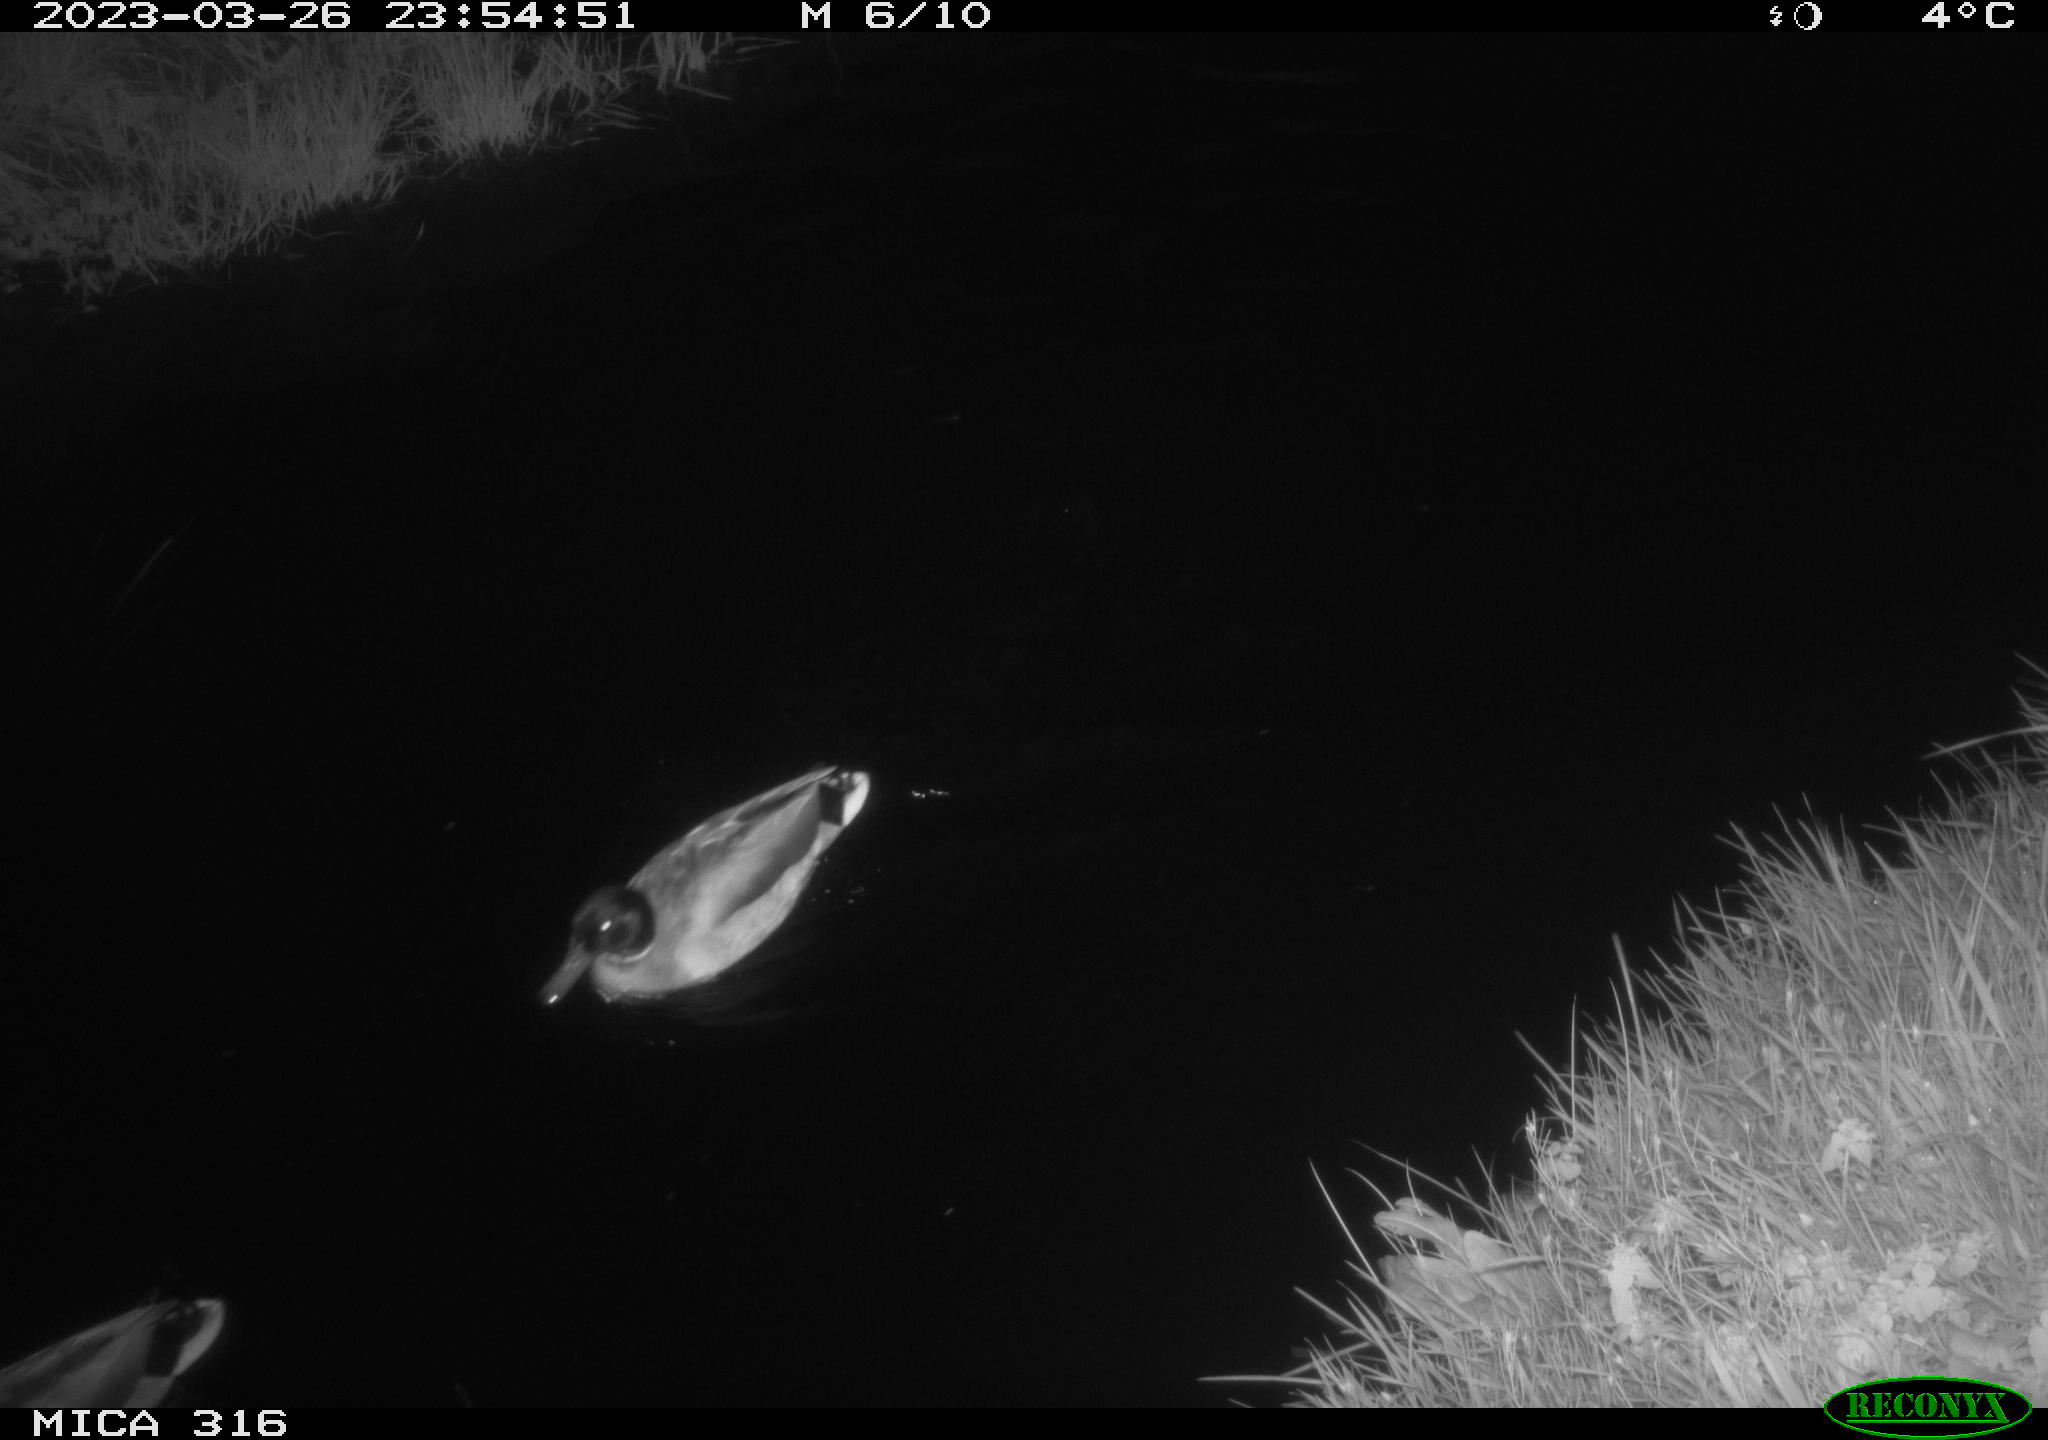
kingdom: Animalia
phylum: Chordata
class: Aves
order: Anseriformes
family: Anatidae
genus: Anas
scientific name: Anas
